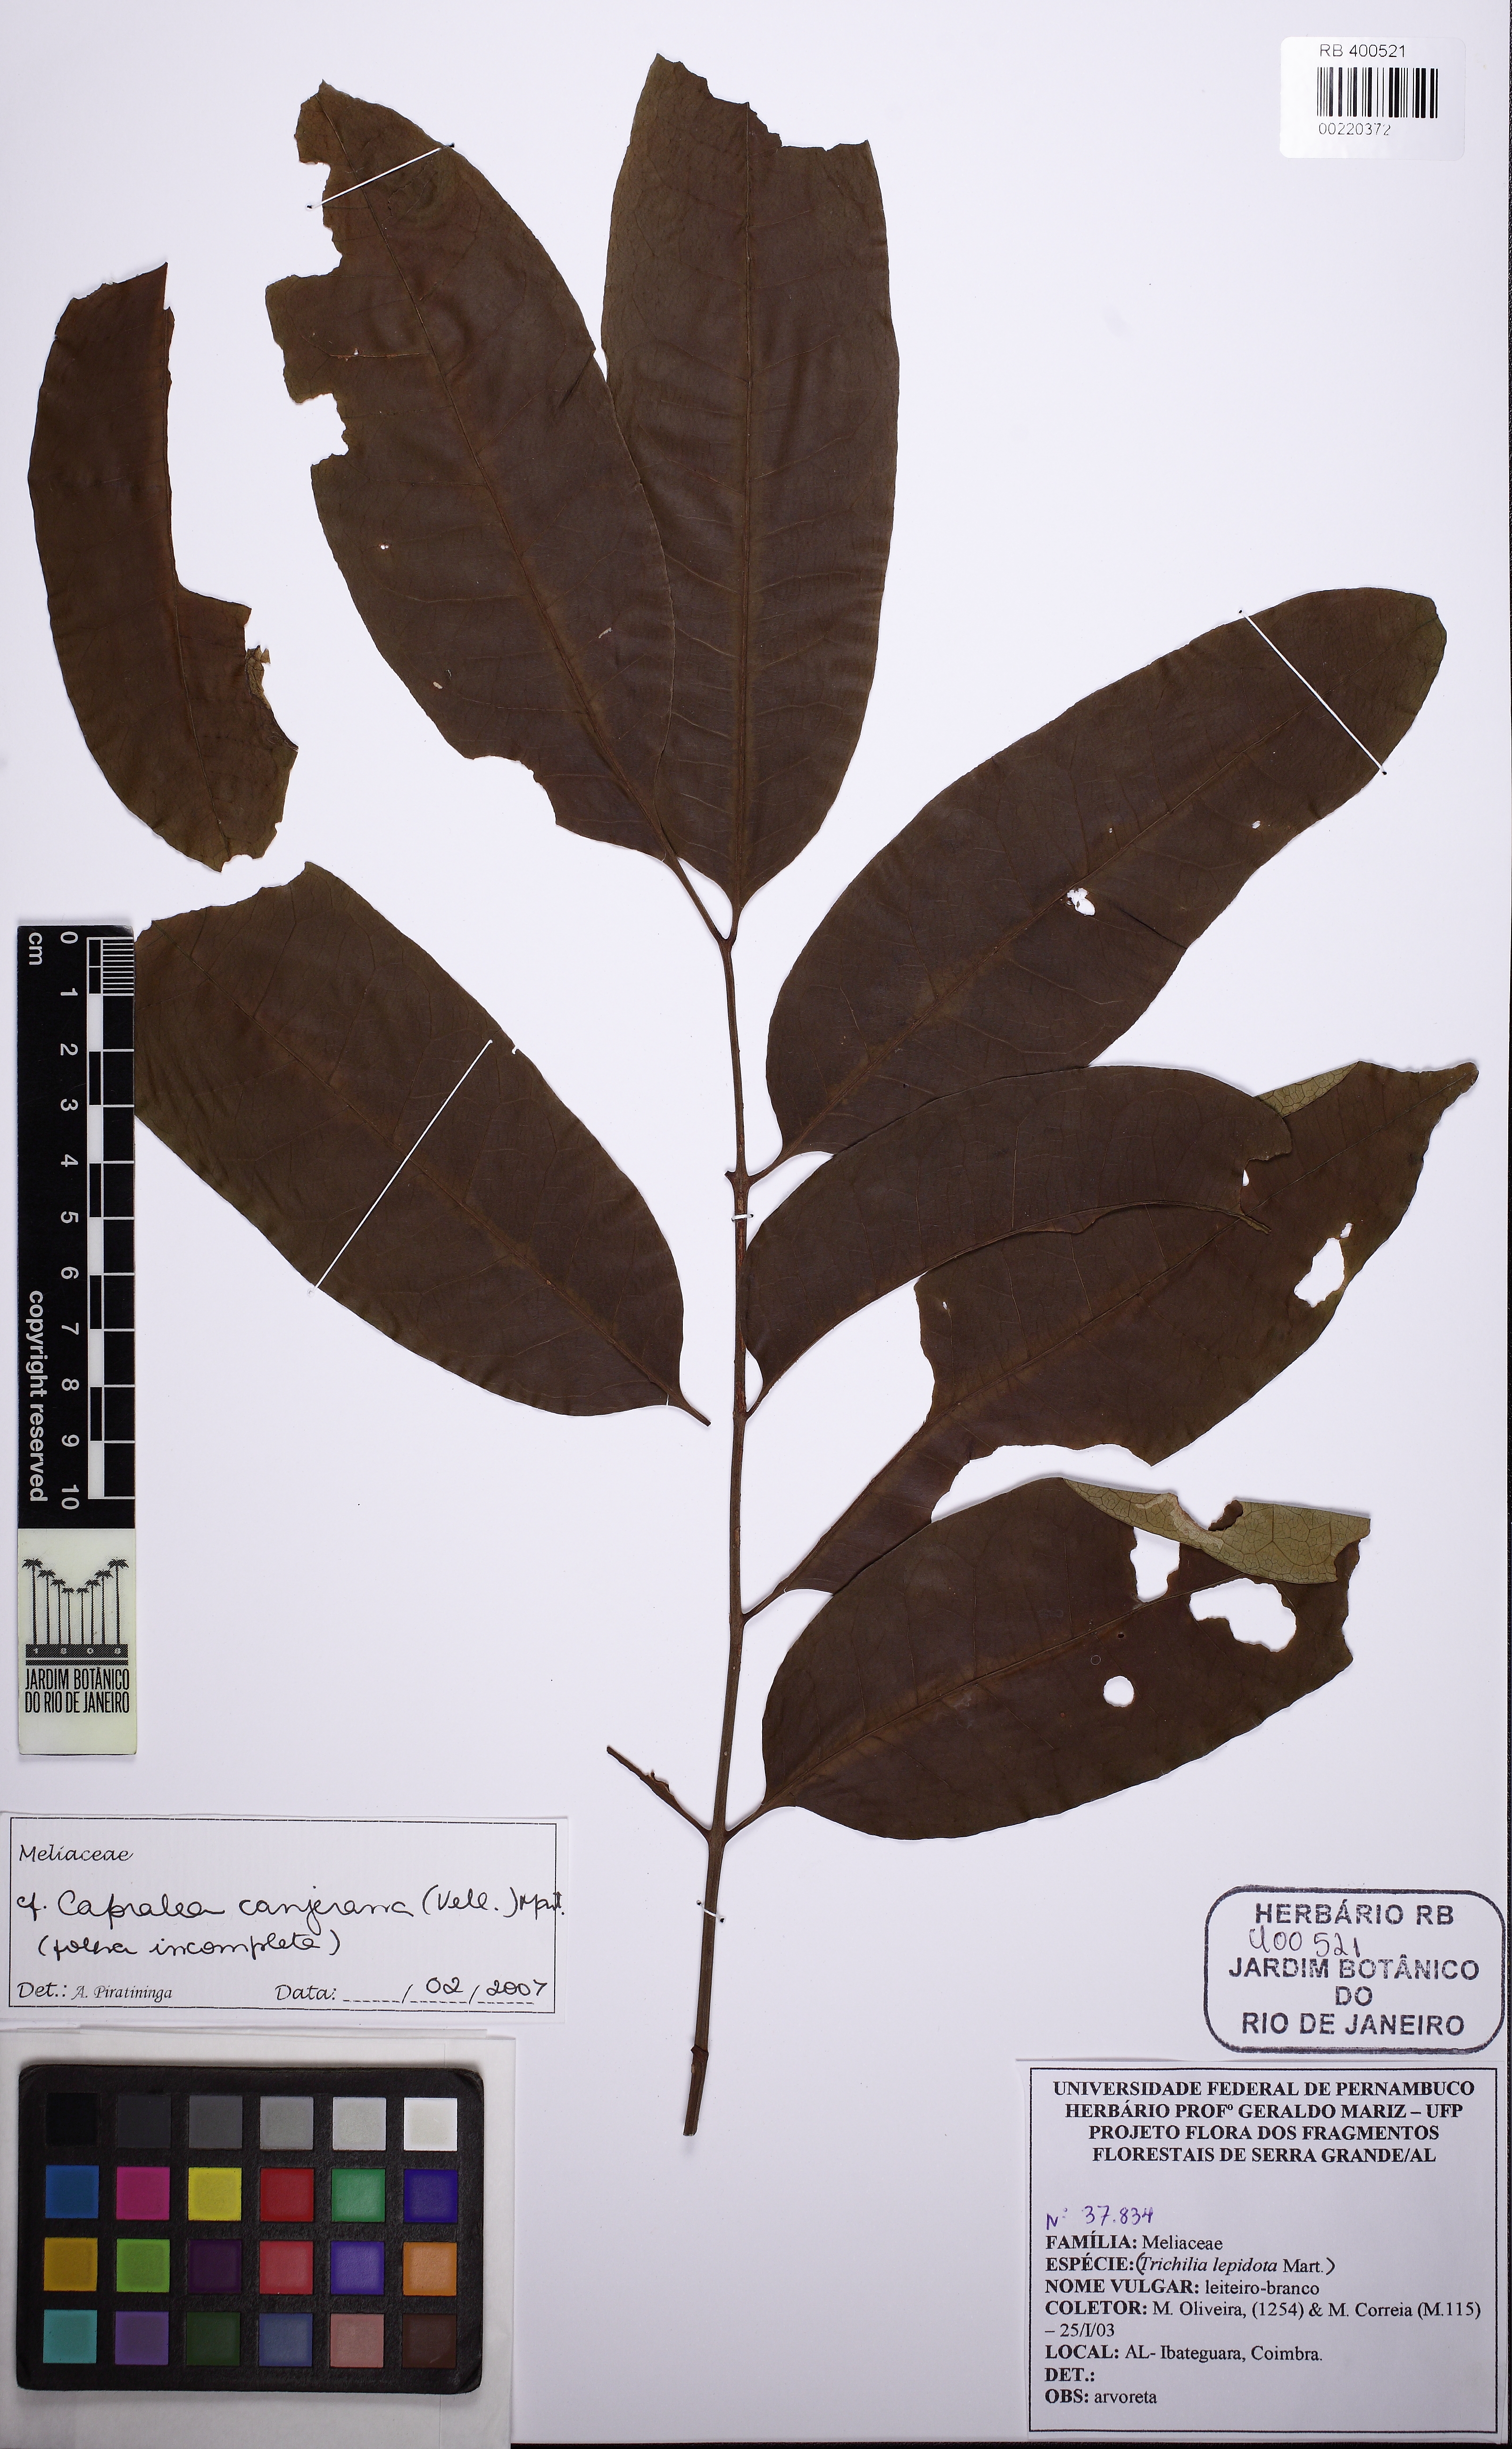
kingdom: Plantae
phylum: Tracheophyta
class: Magnoliopsida
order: Sapindales
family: Meliaceae
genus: Cabralea
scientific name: Cabralea canjerana
